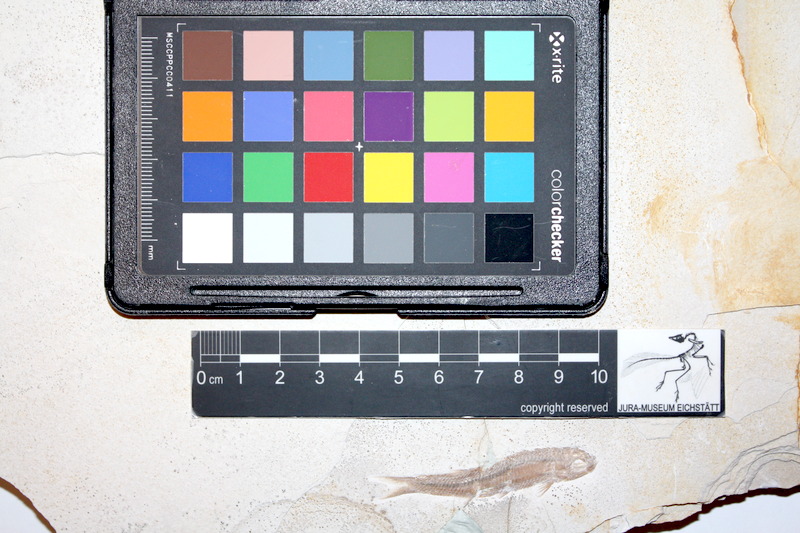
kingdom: Animalia
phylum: Chordata
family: Pleuropholidae
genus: Pleuropholis
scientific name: Pleuropholis laevissima
